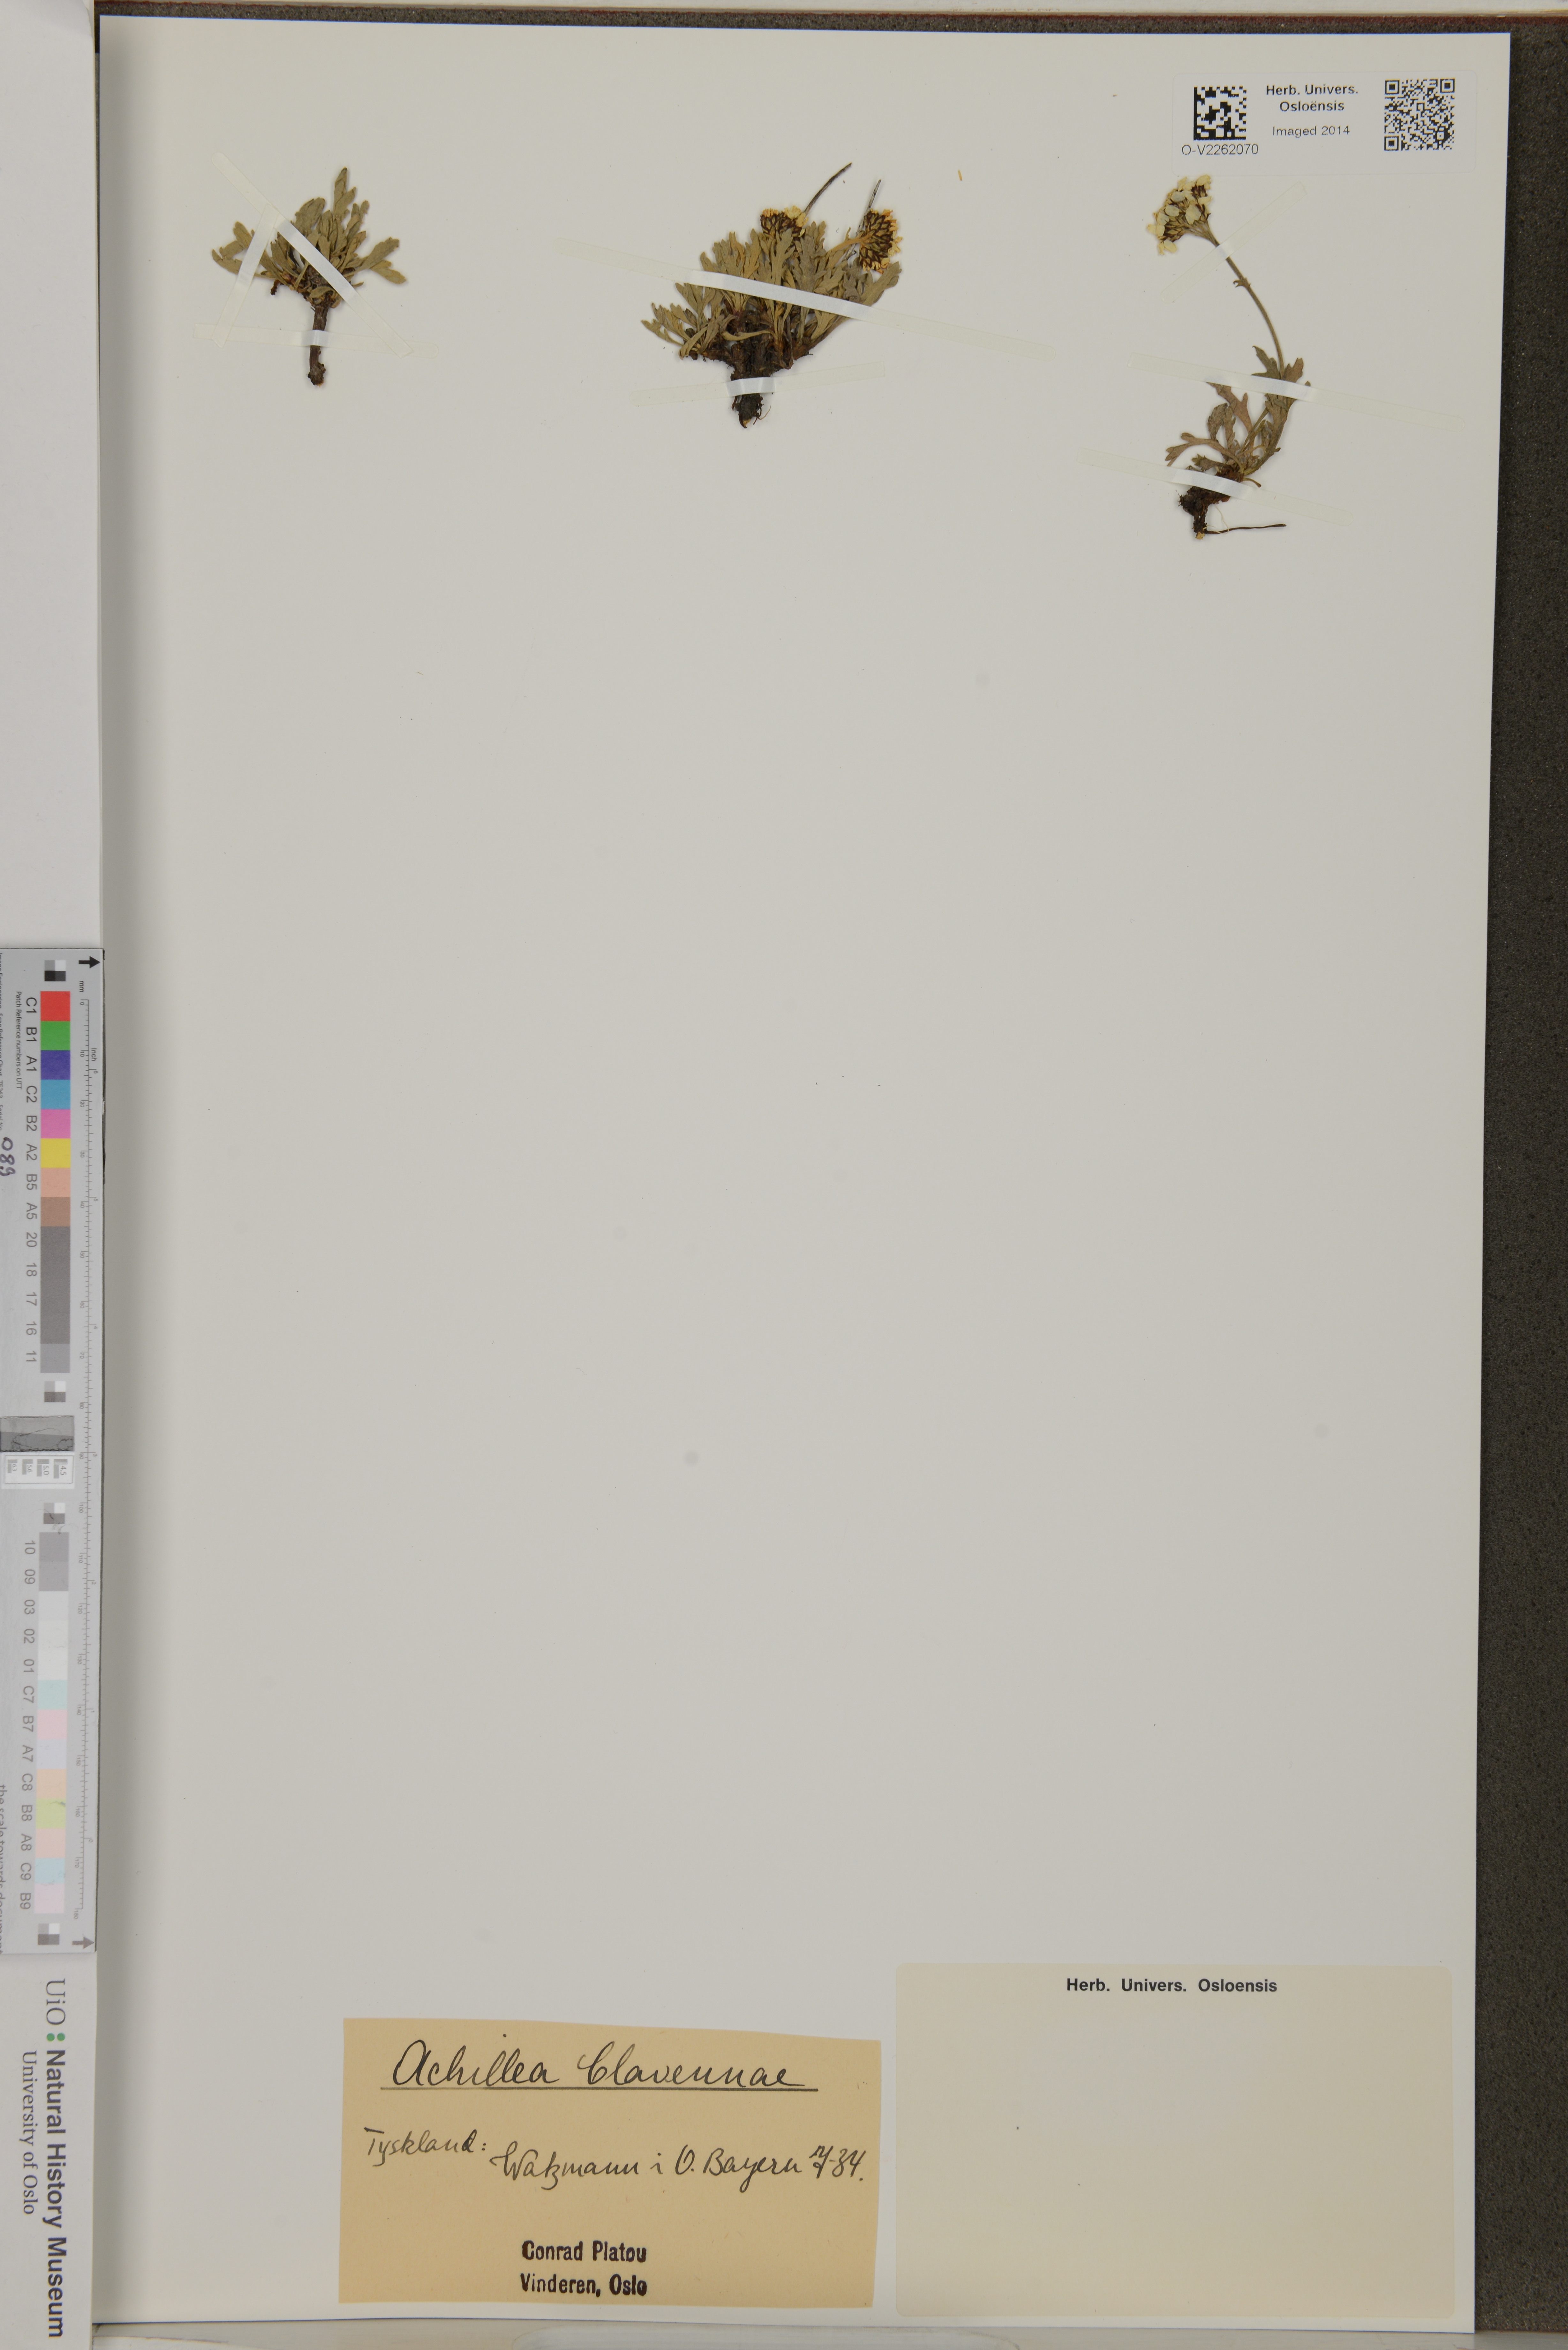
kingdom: Plantae
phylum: Tracheophyta
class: Magnoliopsida
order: Asterales
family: Asteraceae
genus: Achillea
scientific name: Achillea clavennae
